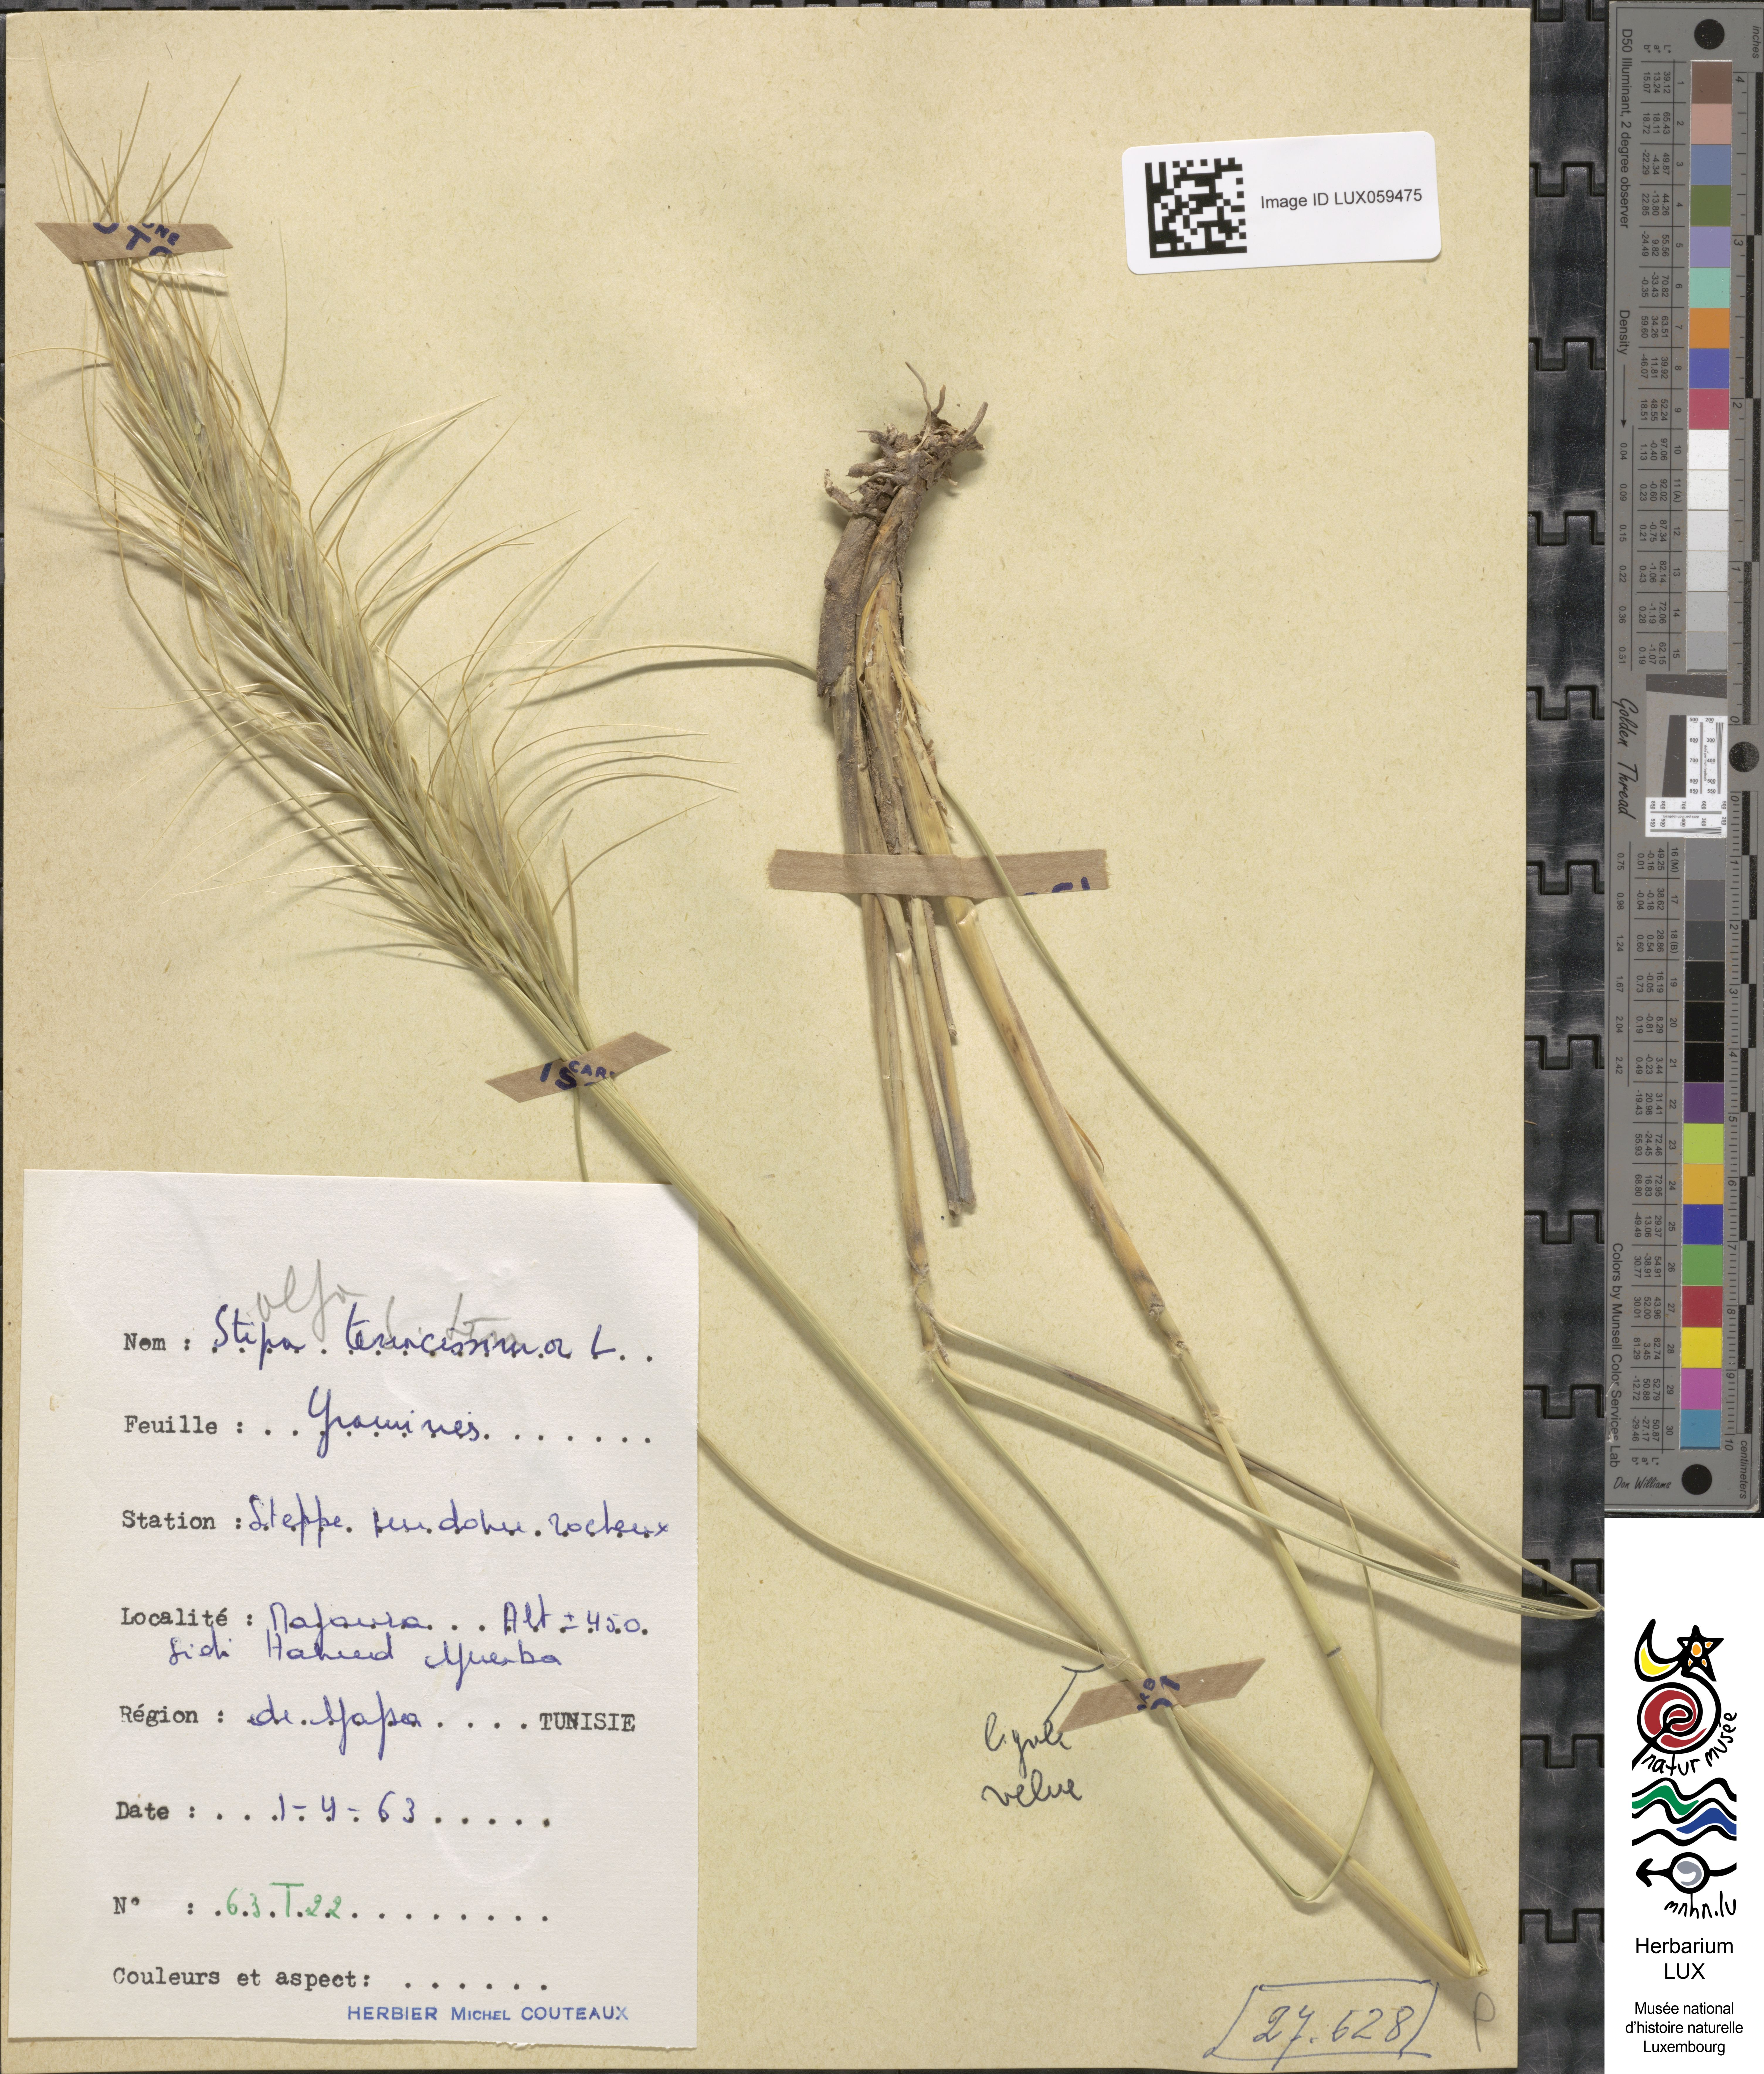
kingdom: Plantae
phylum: Tracheophyta
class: Liliopsida
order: Poales
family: Poaceae
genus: Macrochloa
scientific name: Macrochloa tenacissima
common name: Alfa grass
